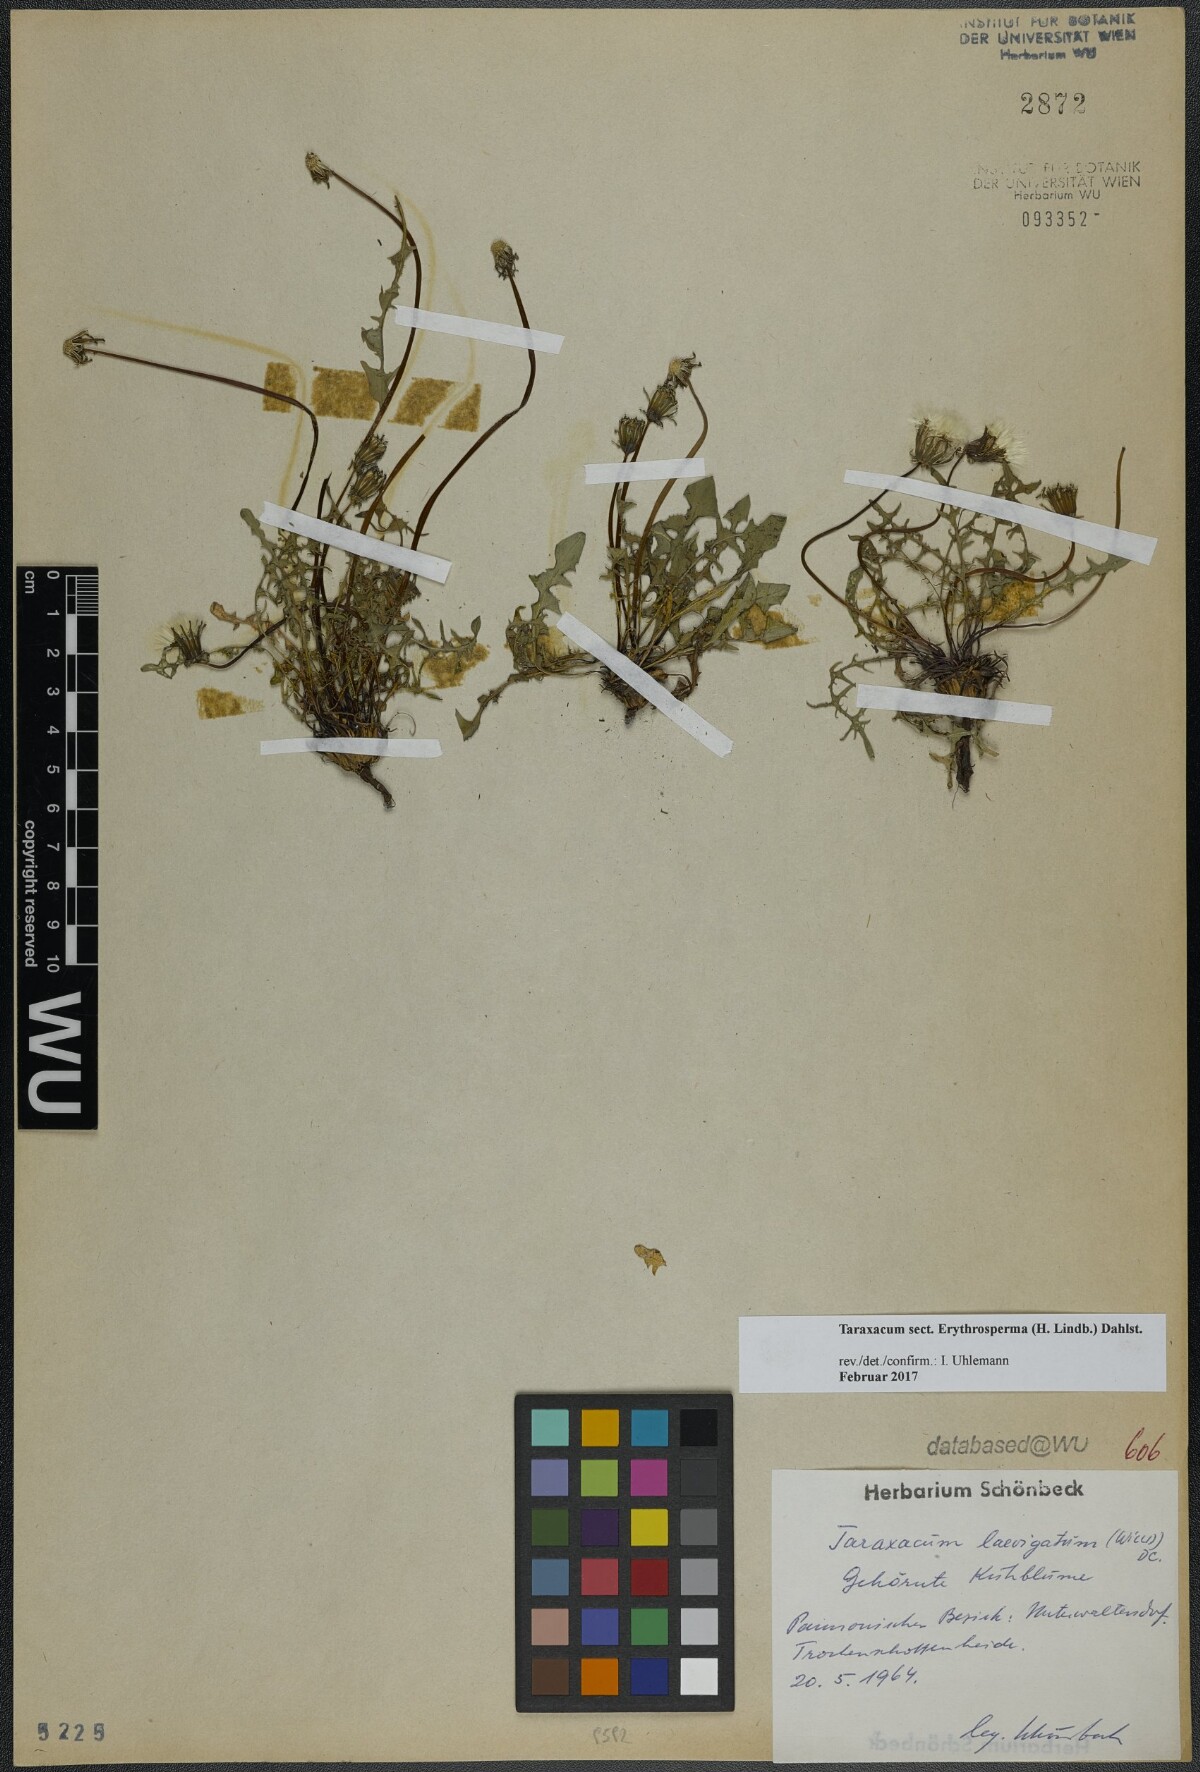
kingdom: Plantae
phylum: Tracheophyta
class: Magnoliopsida
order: Asterales
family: Asteraceae
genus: Taraxacum
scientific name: Taraxacum
